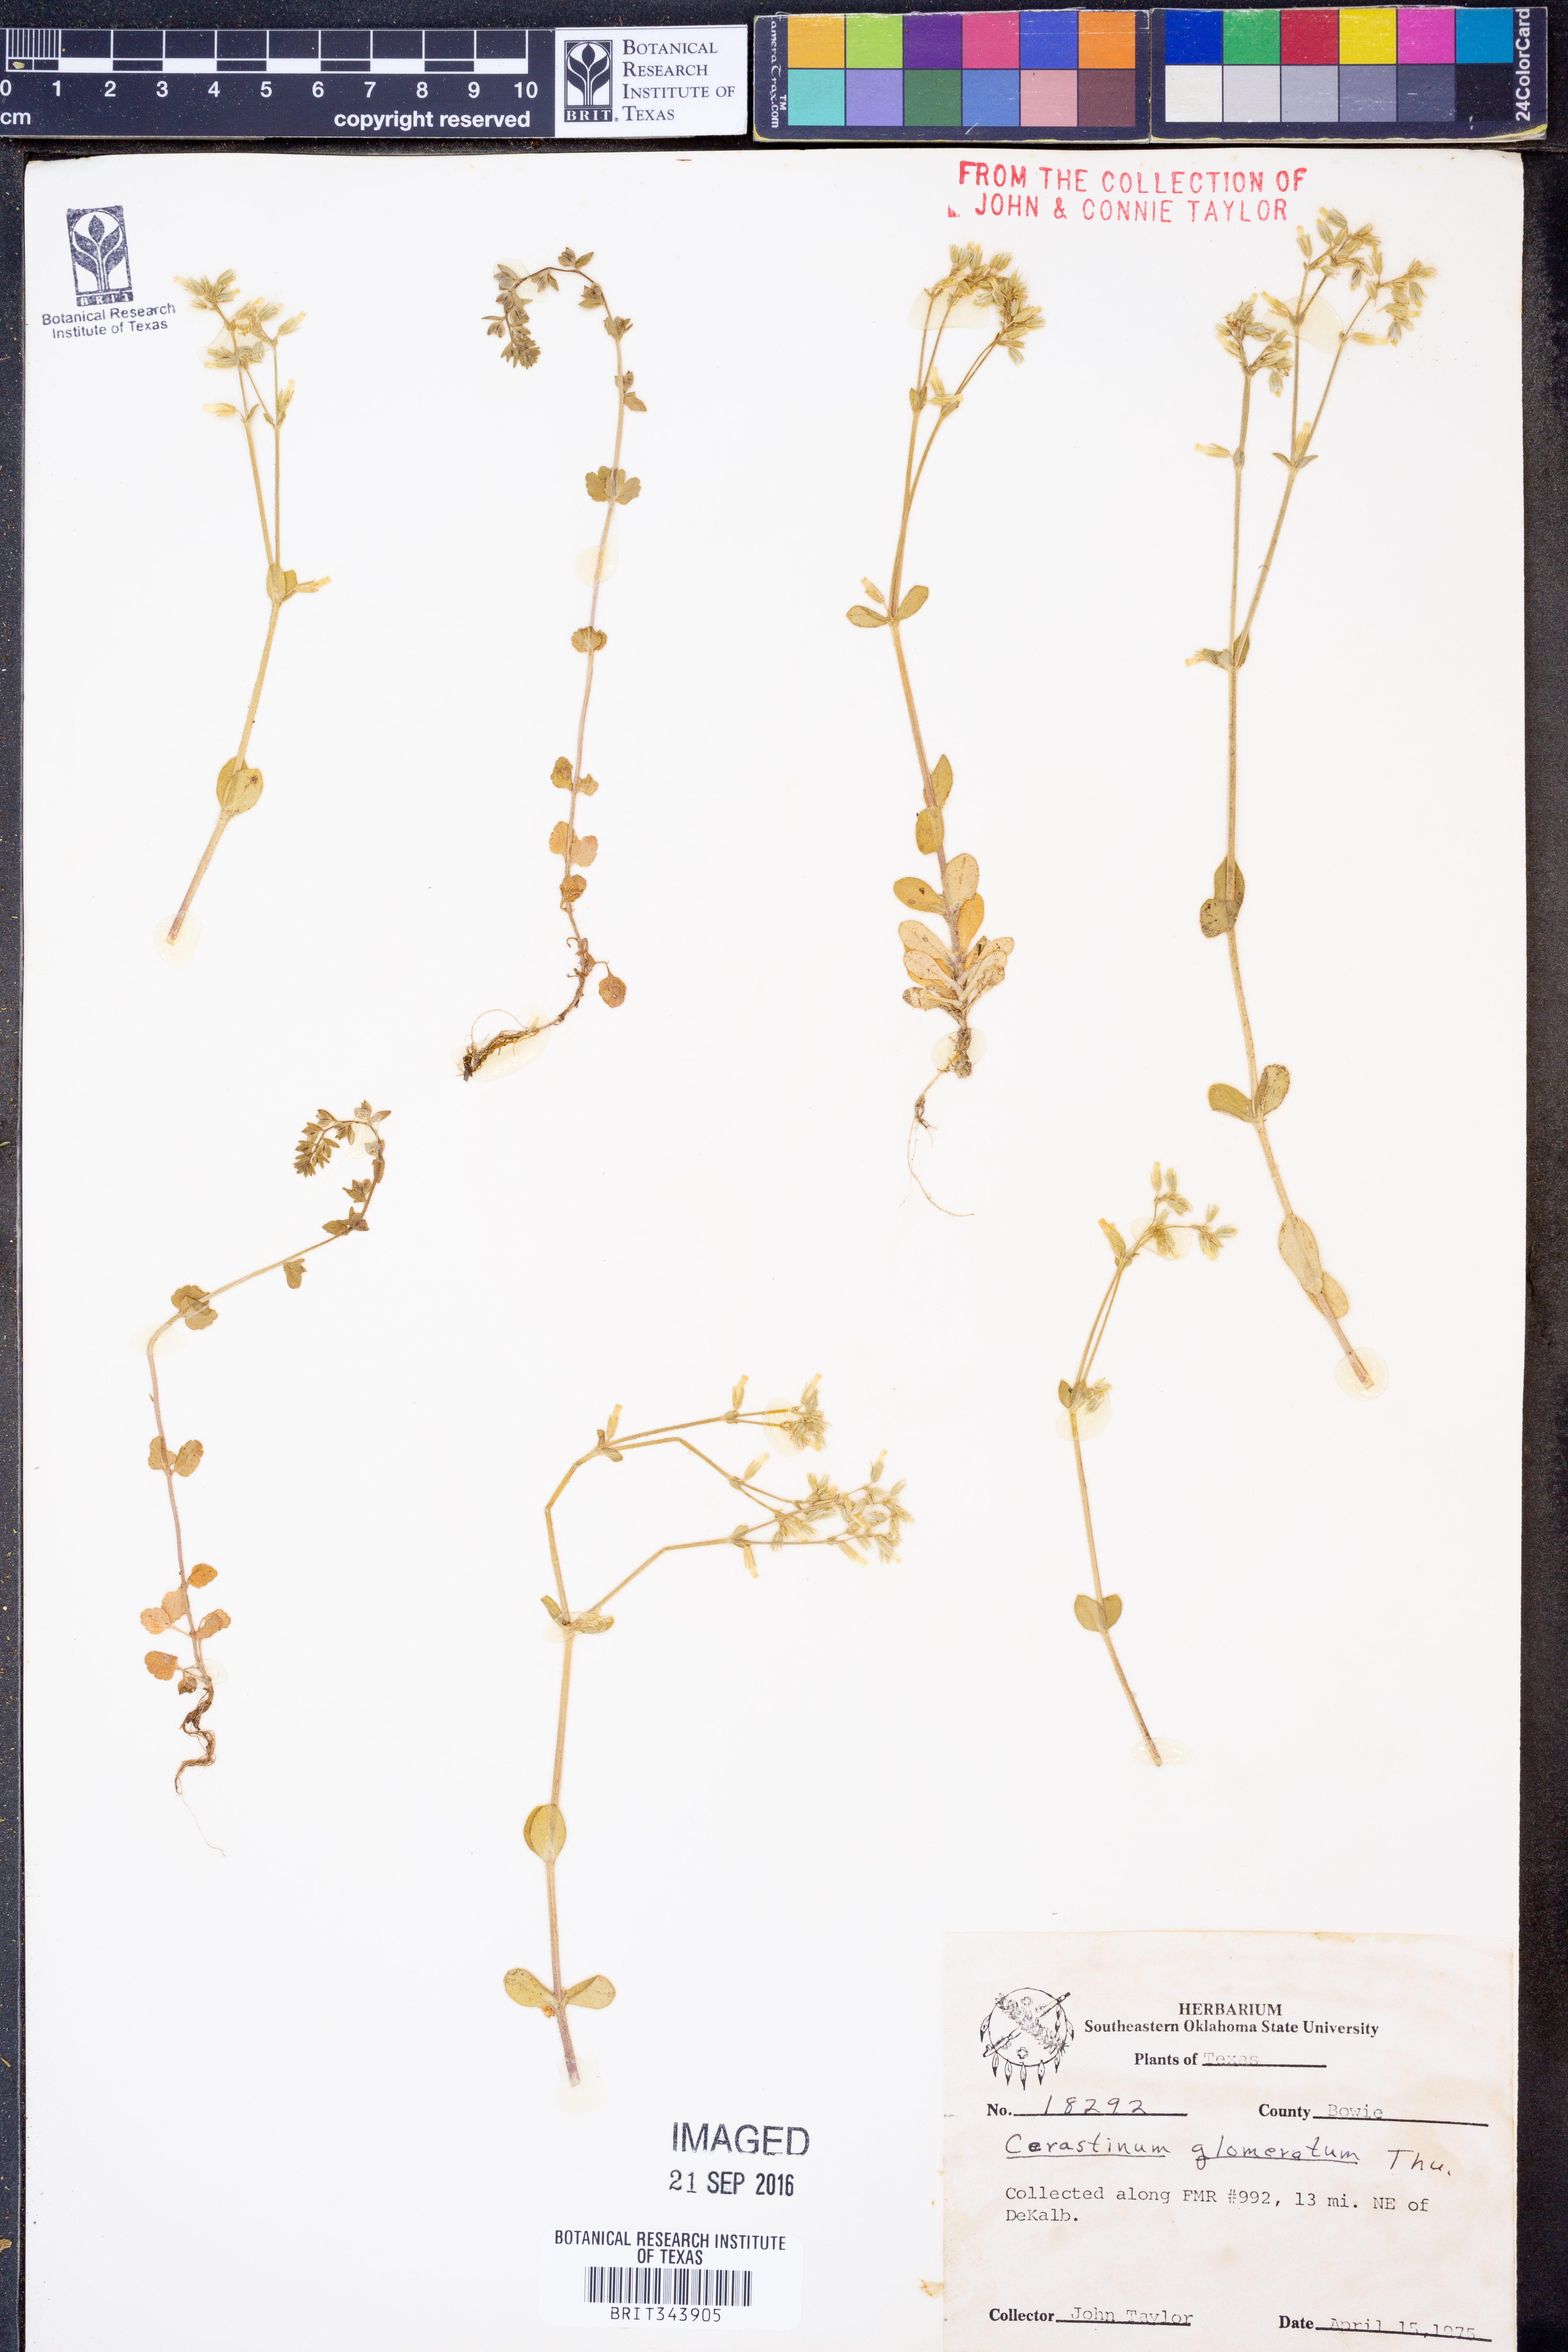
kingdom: Plantae
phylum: Tracheophyta
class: Magnoliopsida
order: Caryophyllales
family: Caryophyllaceae
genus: Cerastium
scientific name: Cerastium glomeratum
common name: Sticky chickweed
